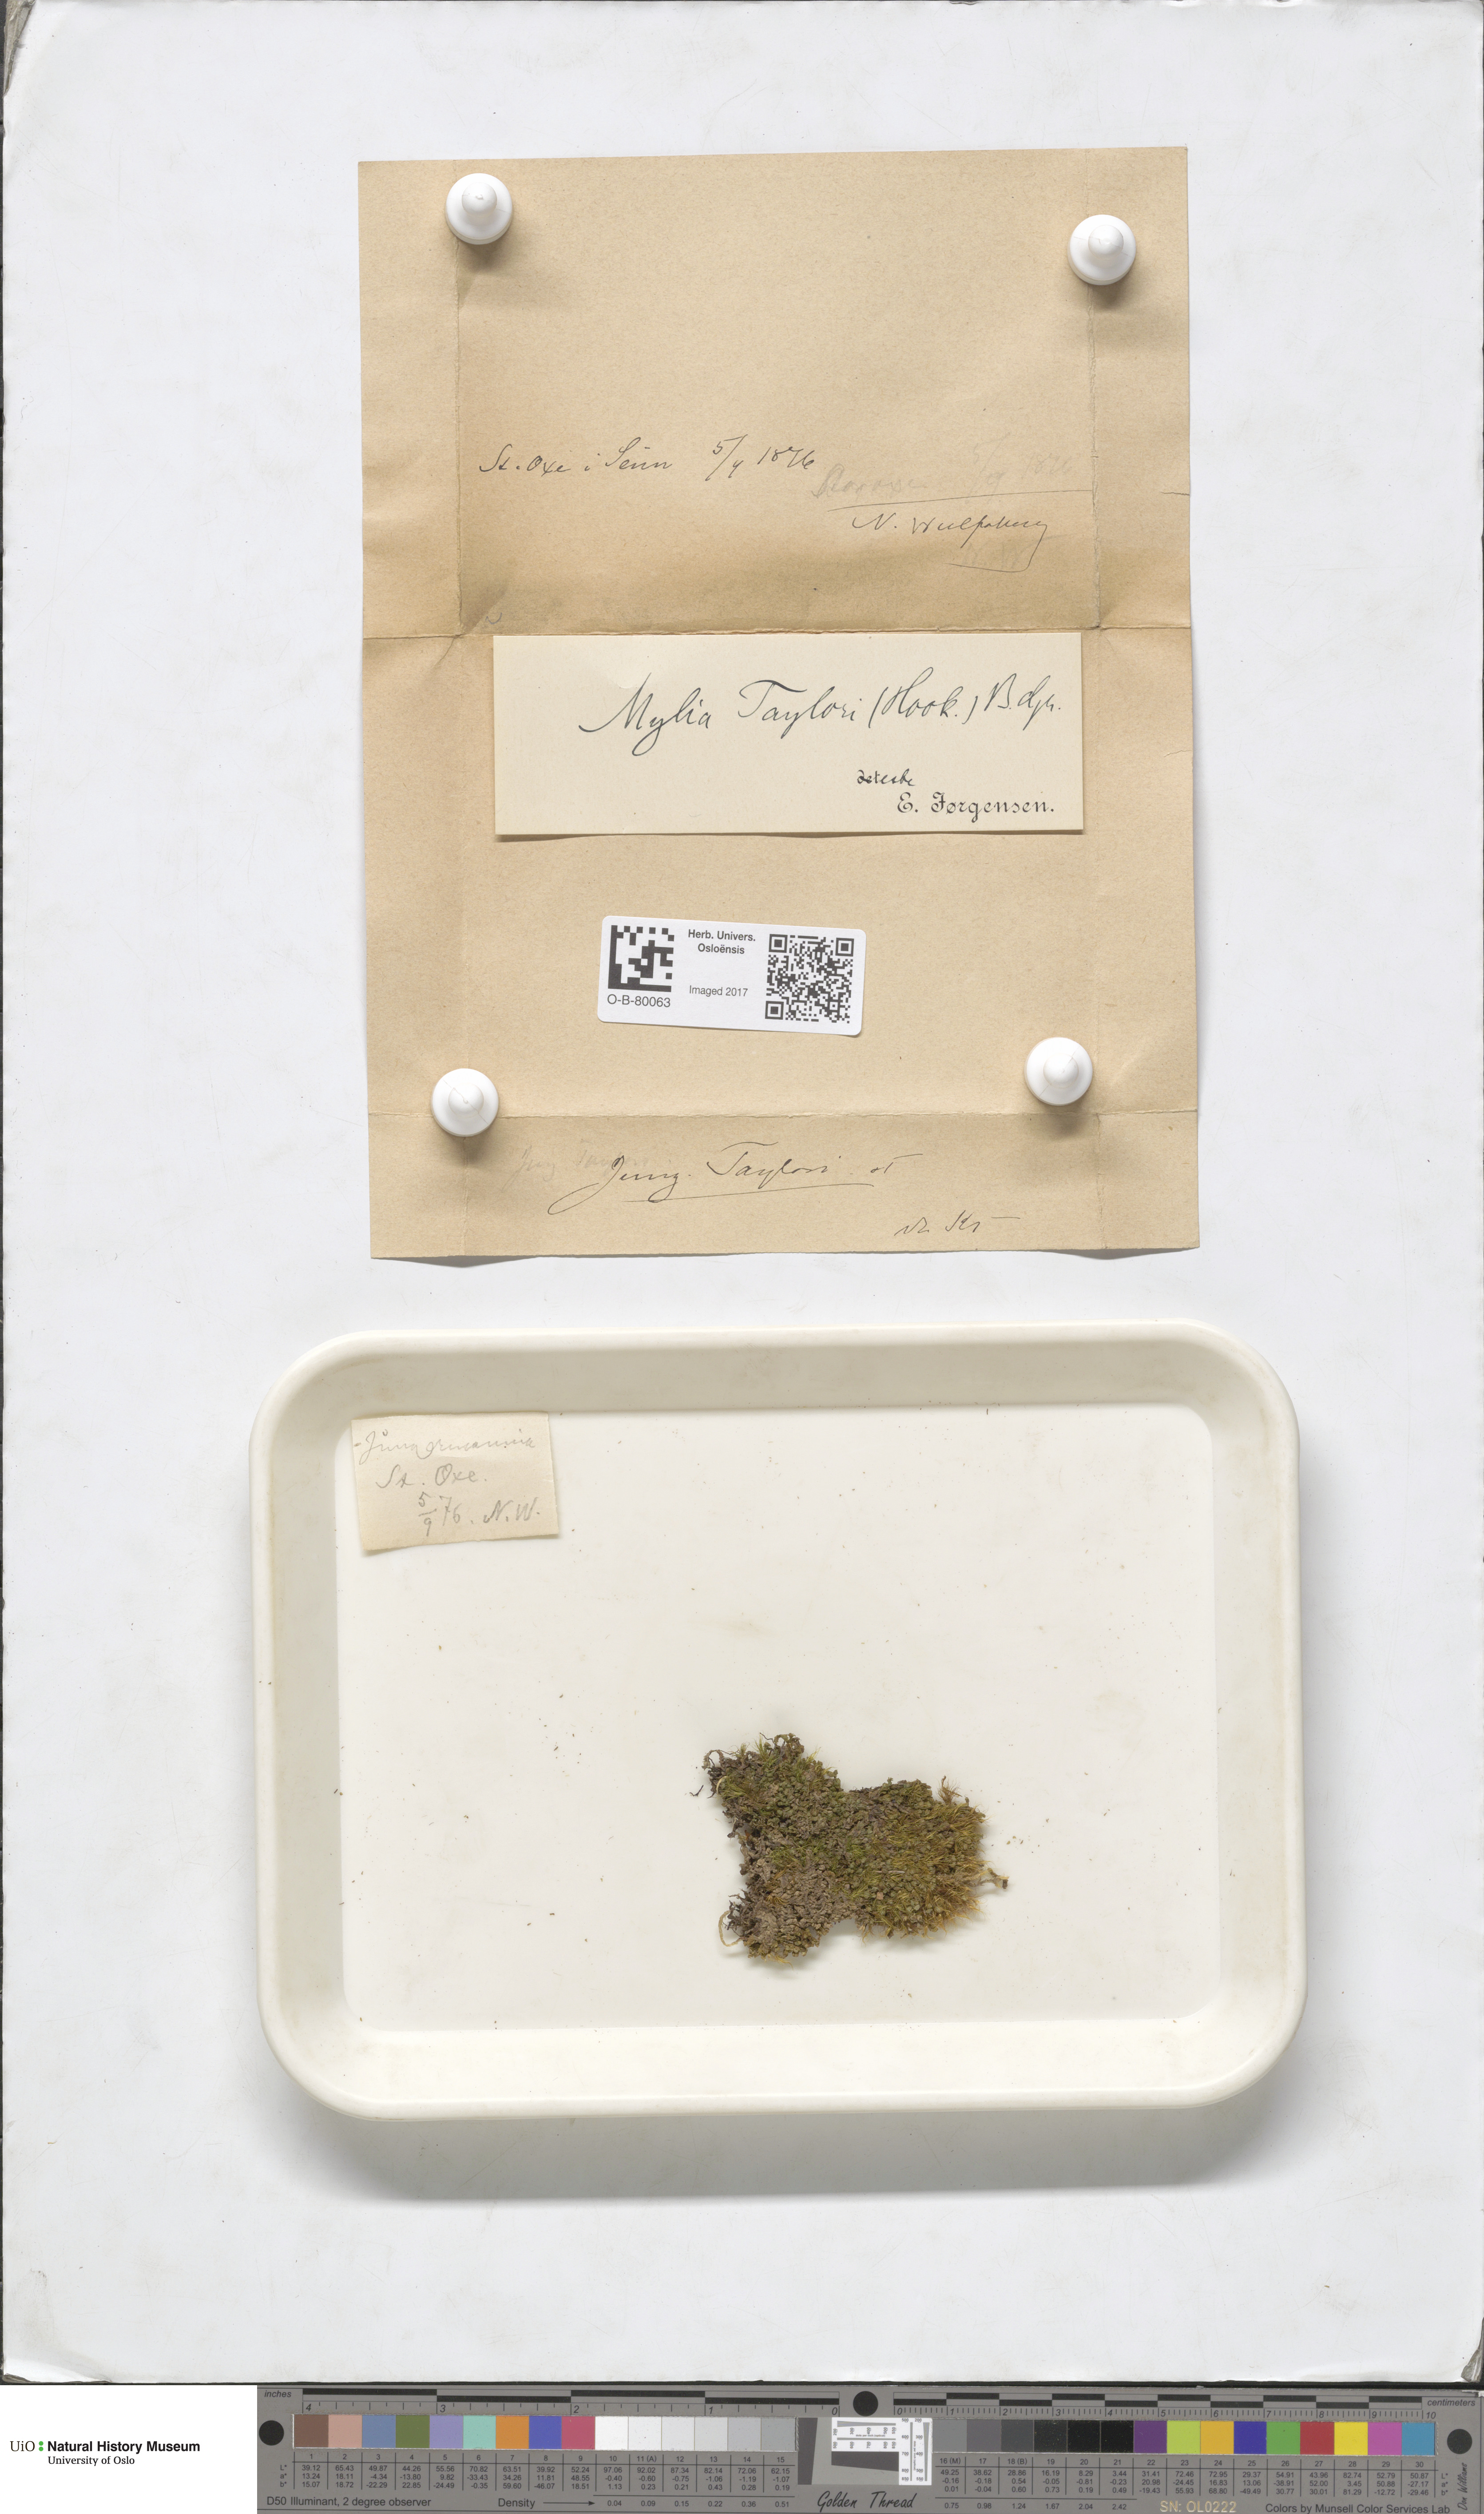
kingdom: Plantae
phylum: Marchantiophyta
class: Jungermanniopsida
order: Jungermanniales
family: Myliaceae
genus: Mylia
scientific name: Mylia taylorii
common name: Taylor s flapwort
